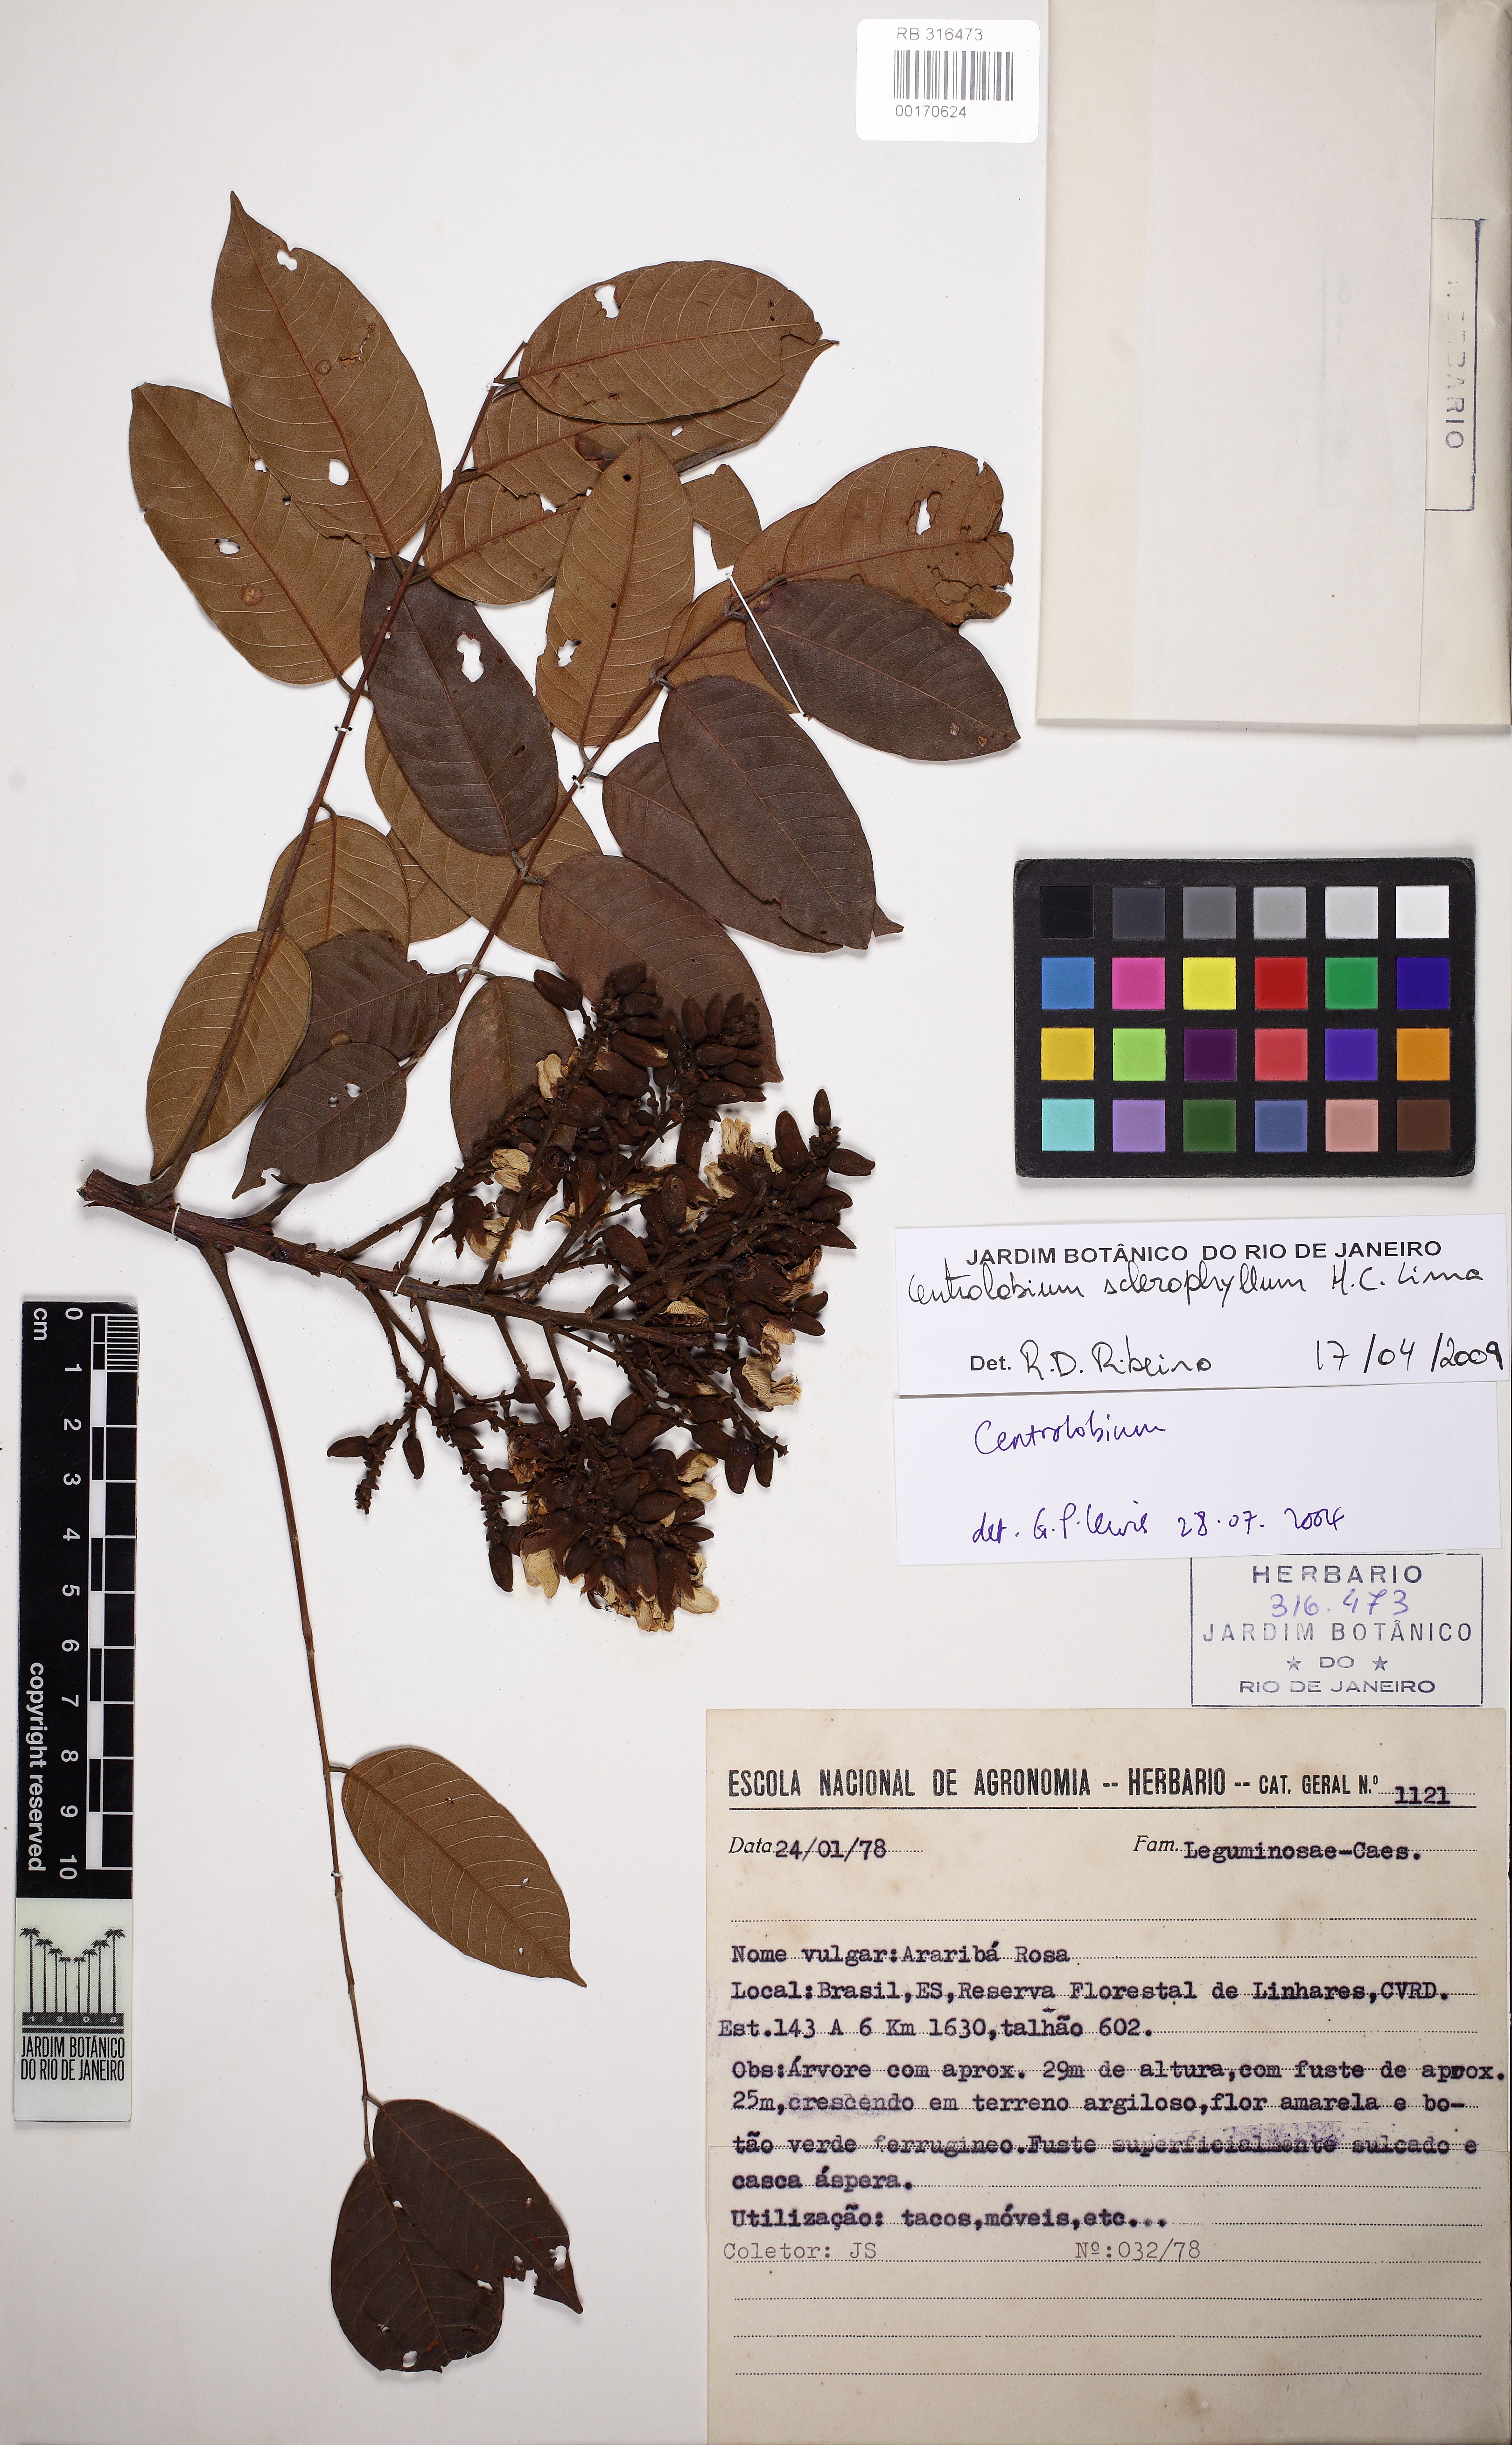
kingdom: Plantae
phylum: Tracheophyta
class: Magnoliopsida
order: Fabales
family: Fabaceae
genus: Centrolobium
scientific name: Centrolobium sclerophyllum
